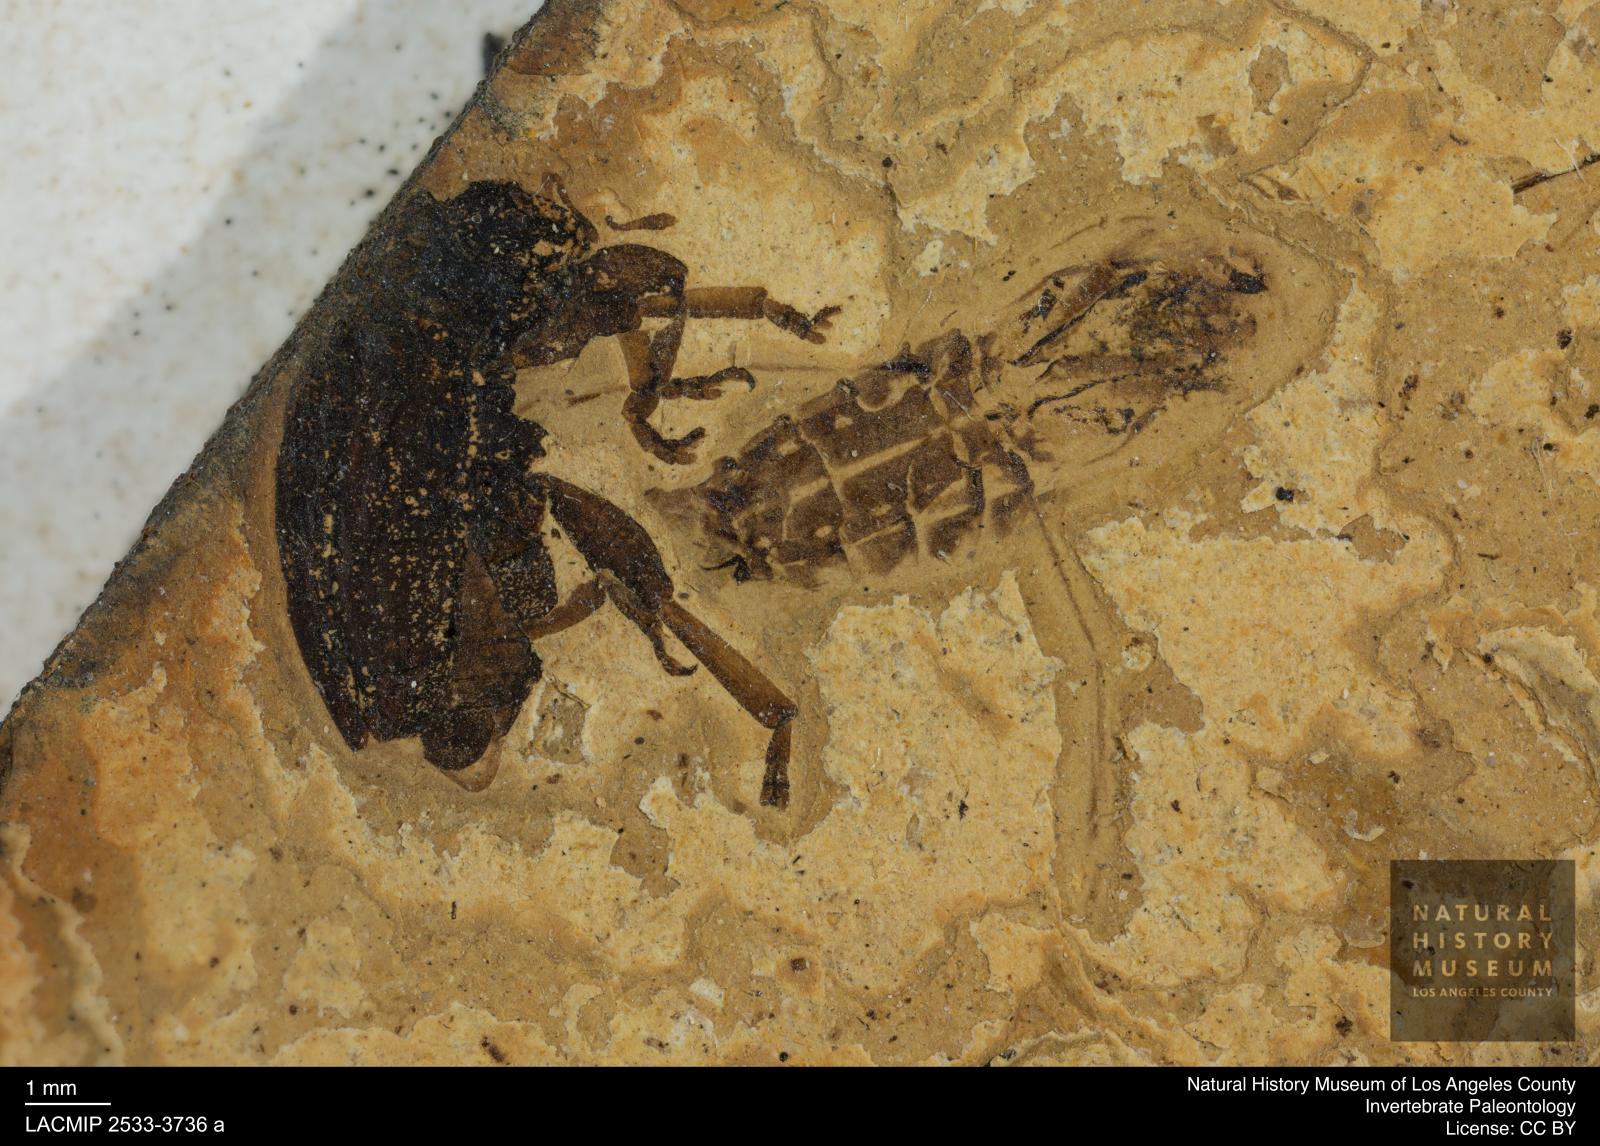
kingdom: Animalia
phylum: Arthropoda
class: Insecta
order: Hemiptera
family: Notonectidae
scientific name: Notonectidae
